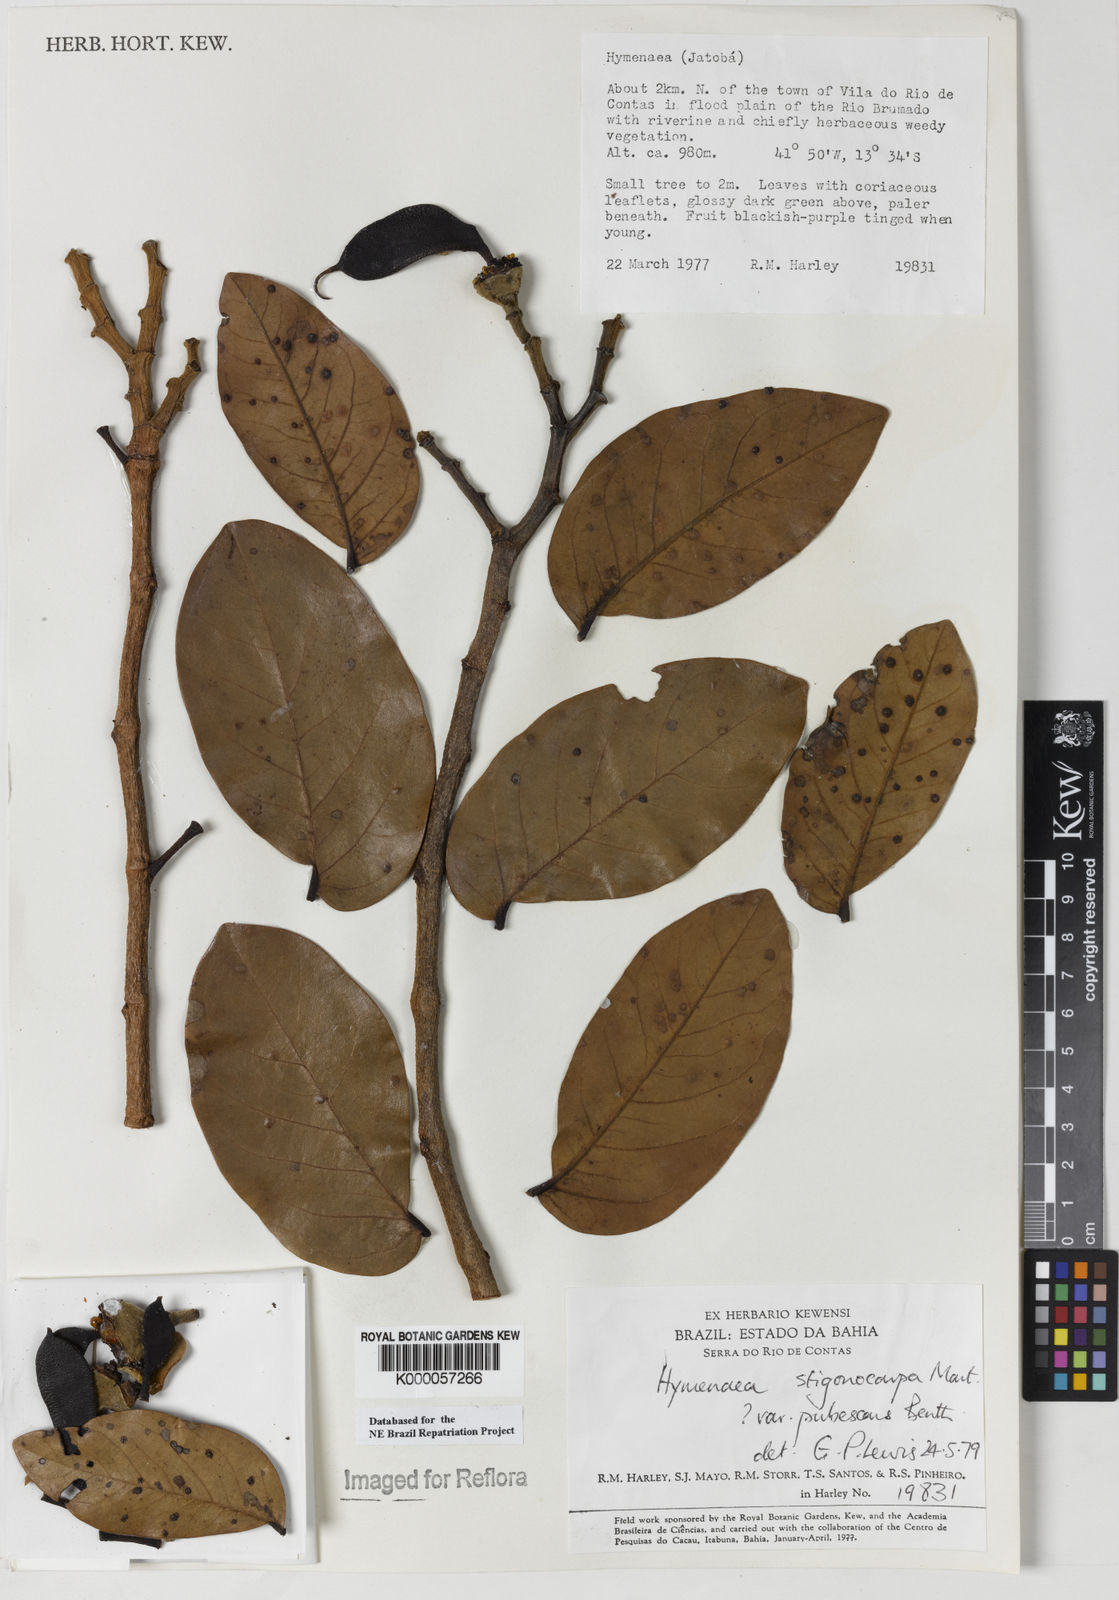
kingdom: Plantae
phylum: Tracheophyta
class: Magnoliopsida
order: Fabales
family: Fabaceae
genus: Hymenaea
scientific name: Hymenaea stigonocarpa
